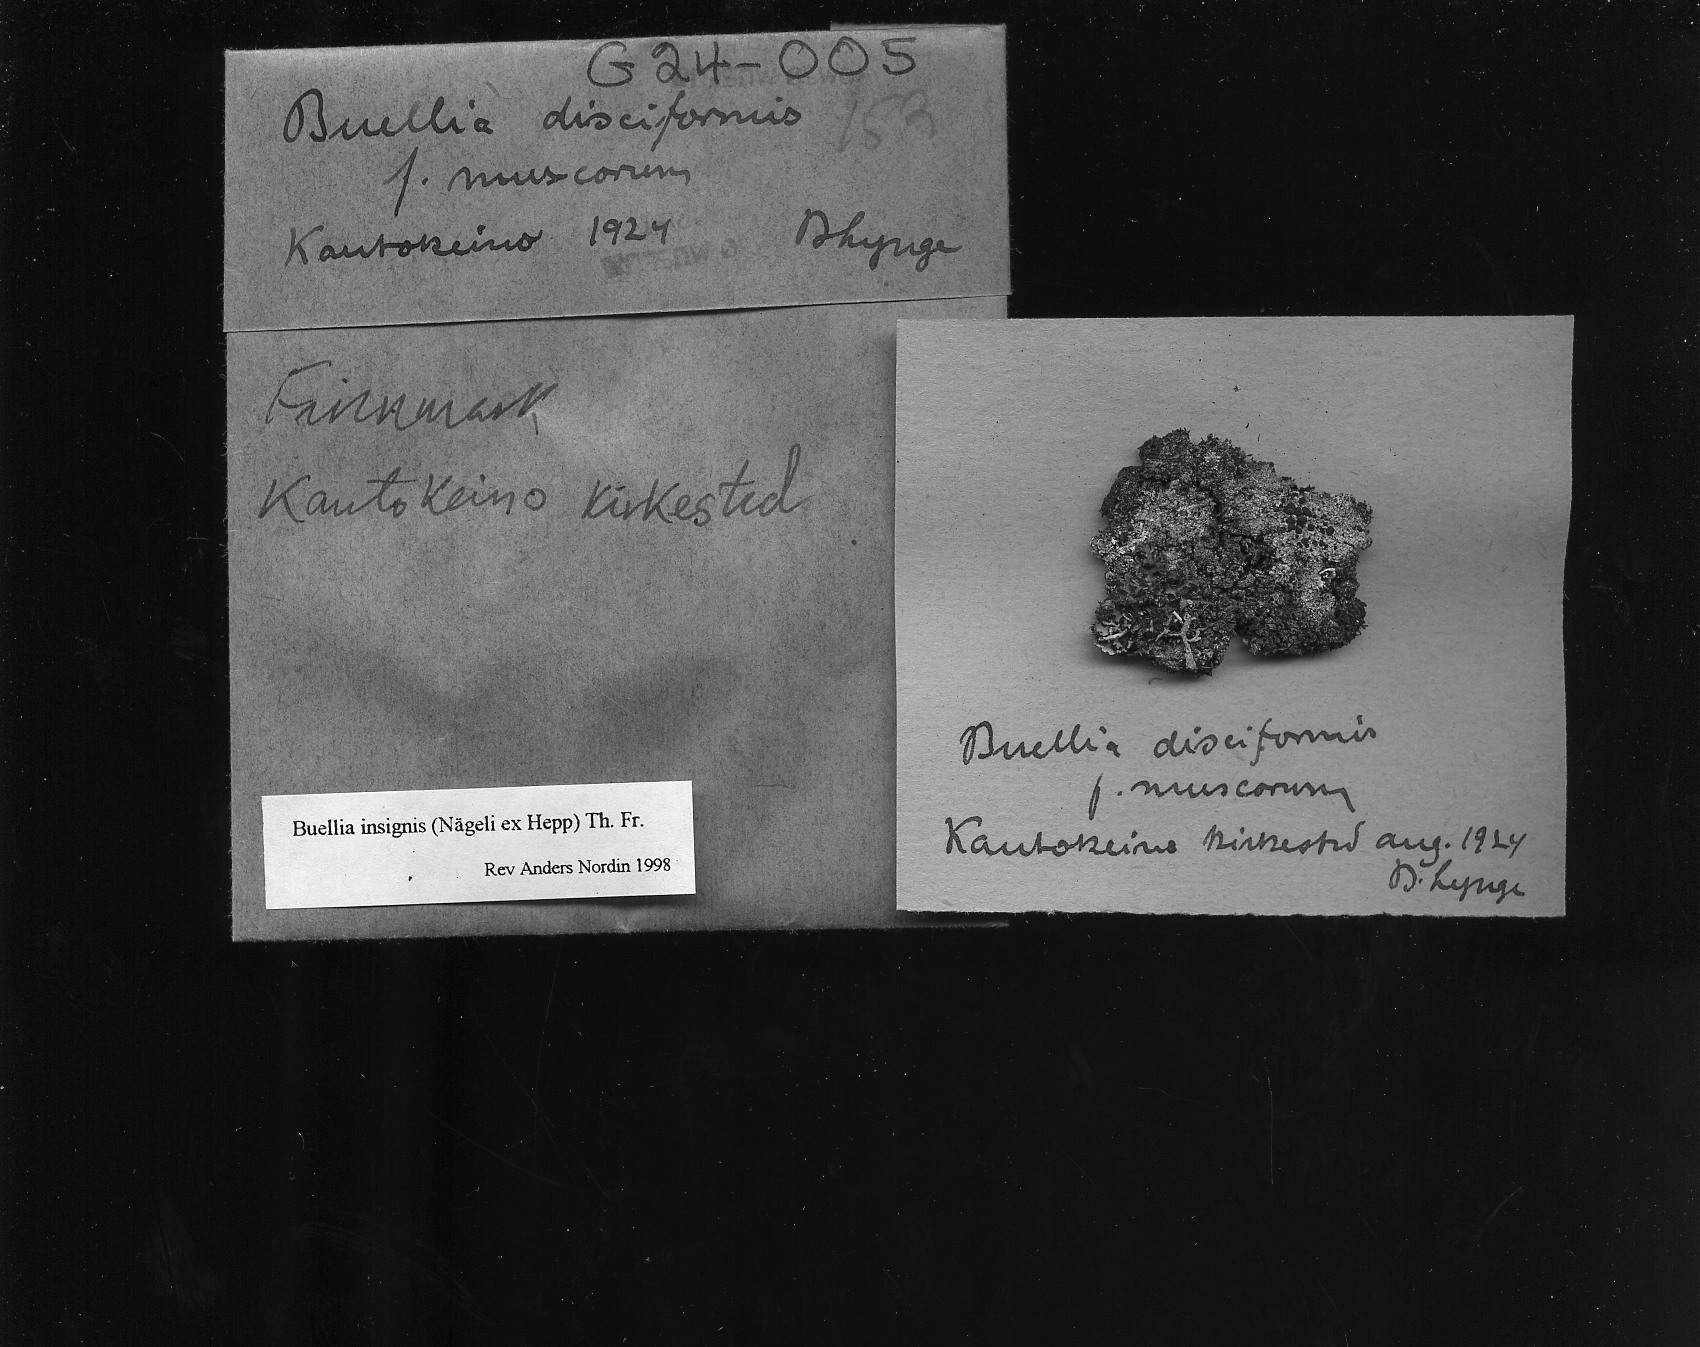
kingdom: Fungi
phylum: Ascomycota
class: Lecanoromycetes
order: Caliciales
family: Caliciaceae
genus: Tetramelas
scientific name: Tetramelas insignis
